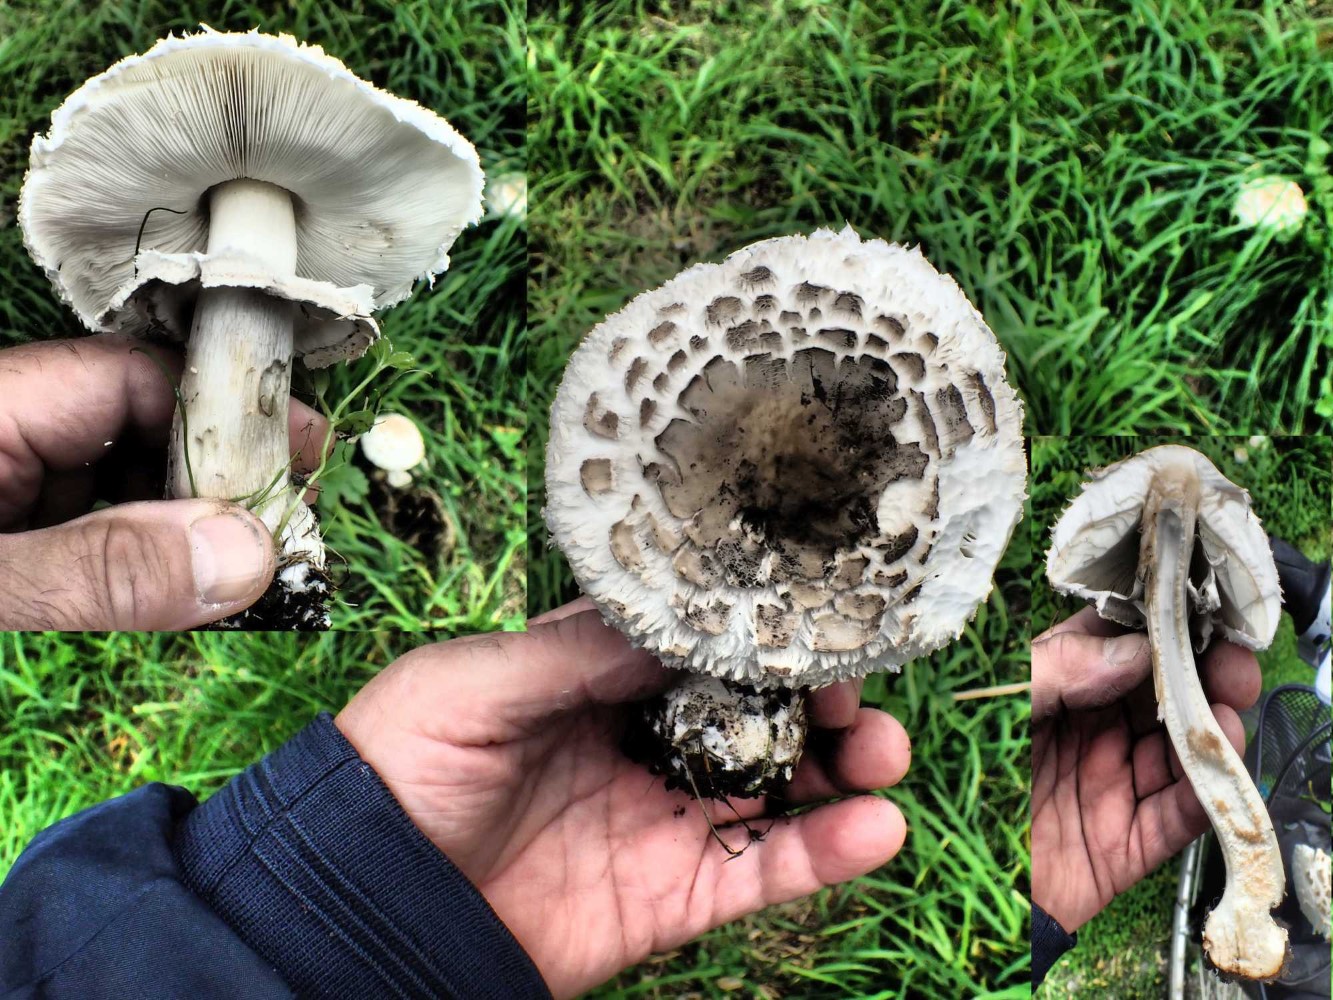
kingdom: Fungi
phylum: Basidiomycota
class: Agaricomycetes
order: Agaricales
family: Agaricaceae
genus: Chlorophyllum
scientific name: Chlorophyllum brunneum
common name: giftig rabarberhat
